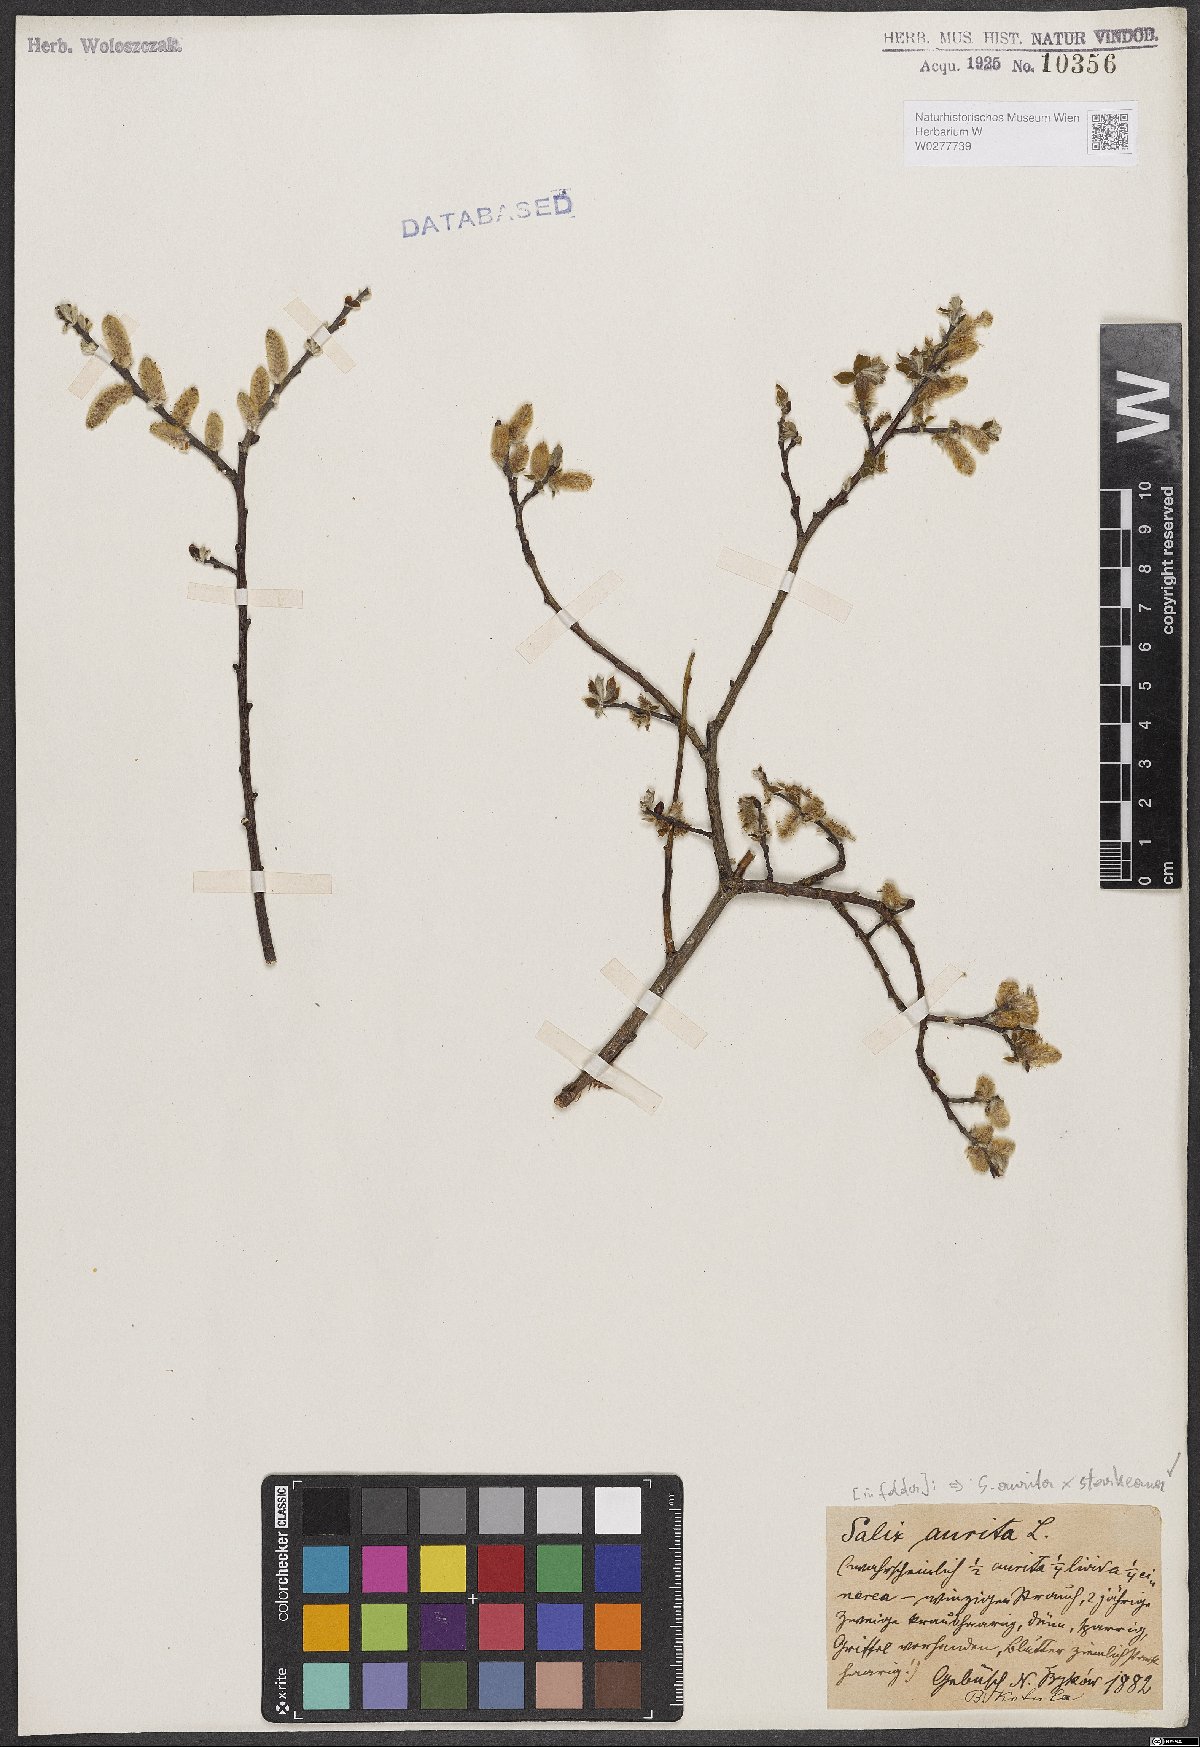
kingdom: Plantae
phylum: Tracheophyta
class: Magnoliopsida
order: Malpighiales
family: Salicaceae
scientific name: Salicaceae
